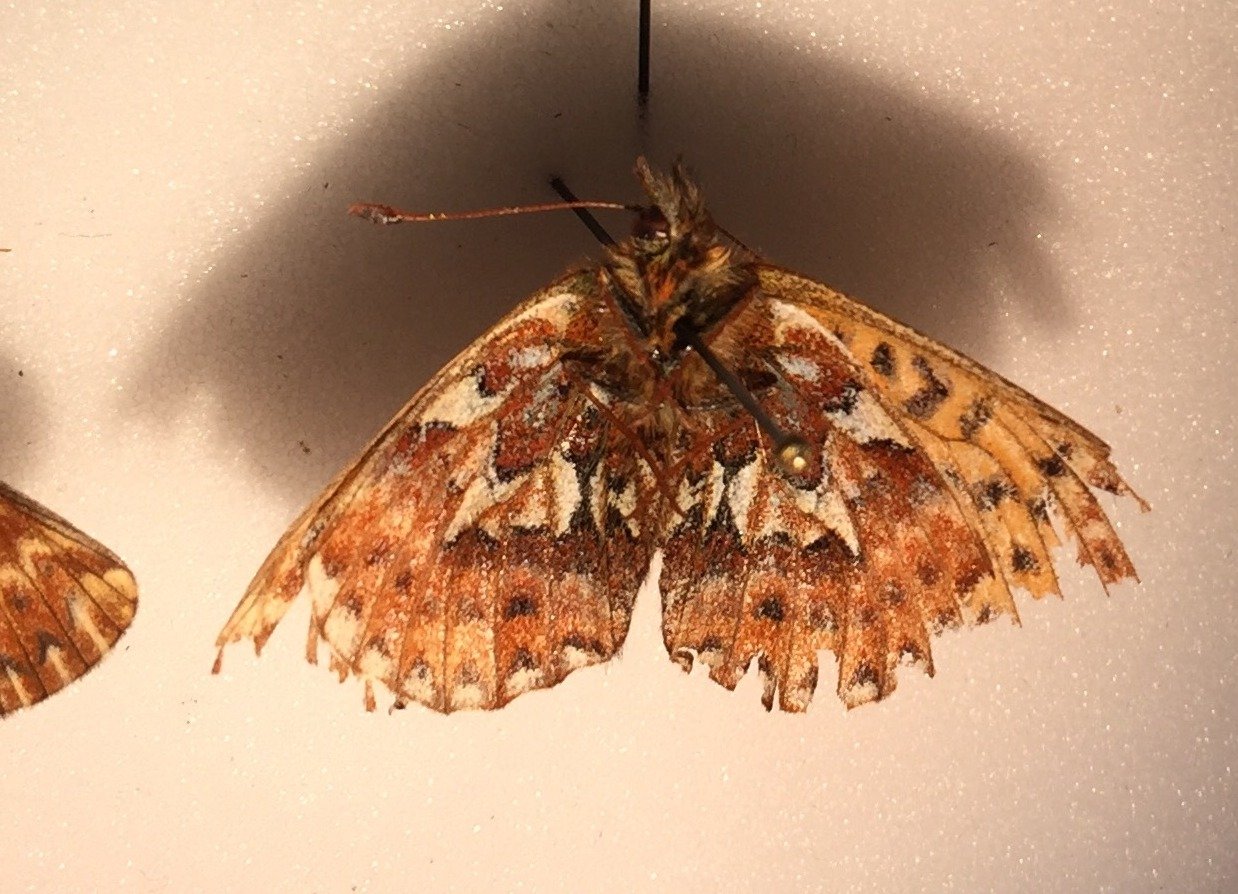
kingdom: Animalia
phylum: Arthropoda
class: Insecta
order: Lepidoptera
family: Nymphalidae
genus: Boloria
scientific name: Boloria chariclea
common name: Arctic Fritillary
